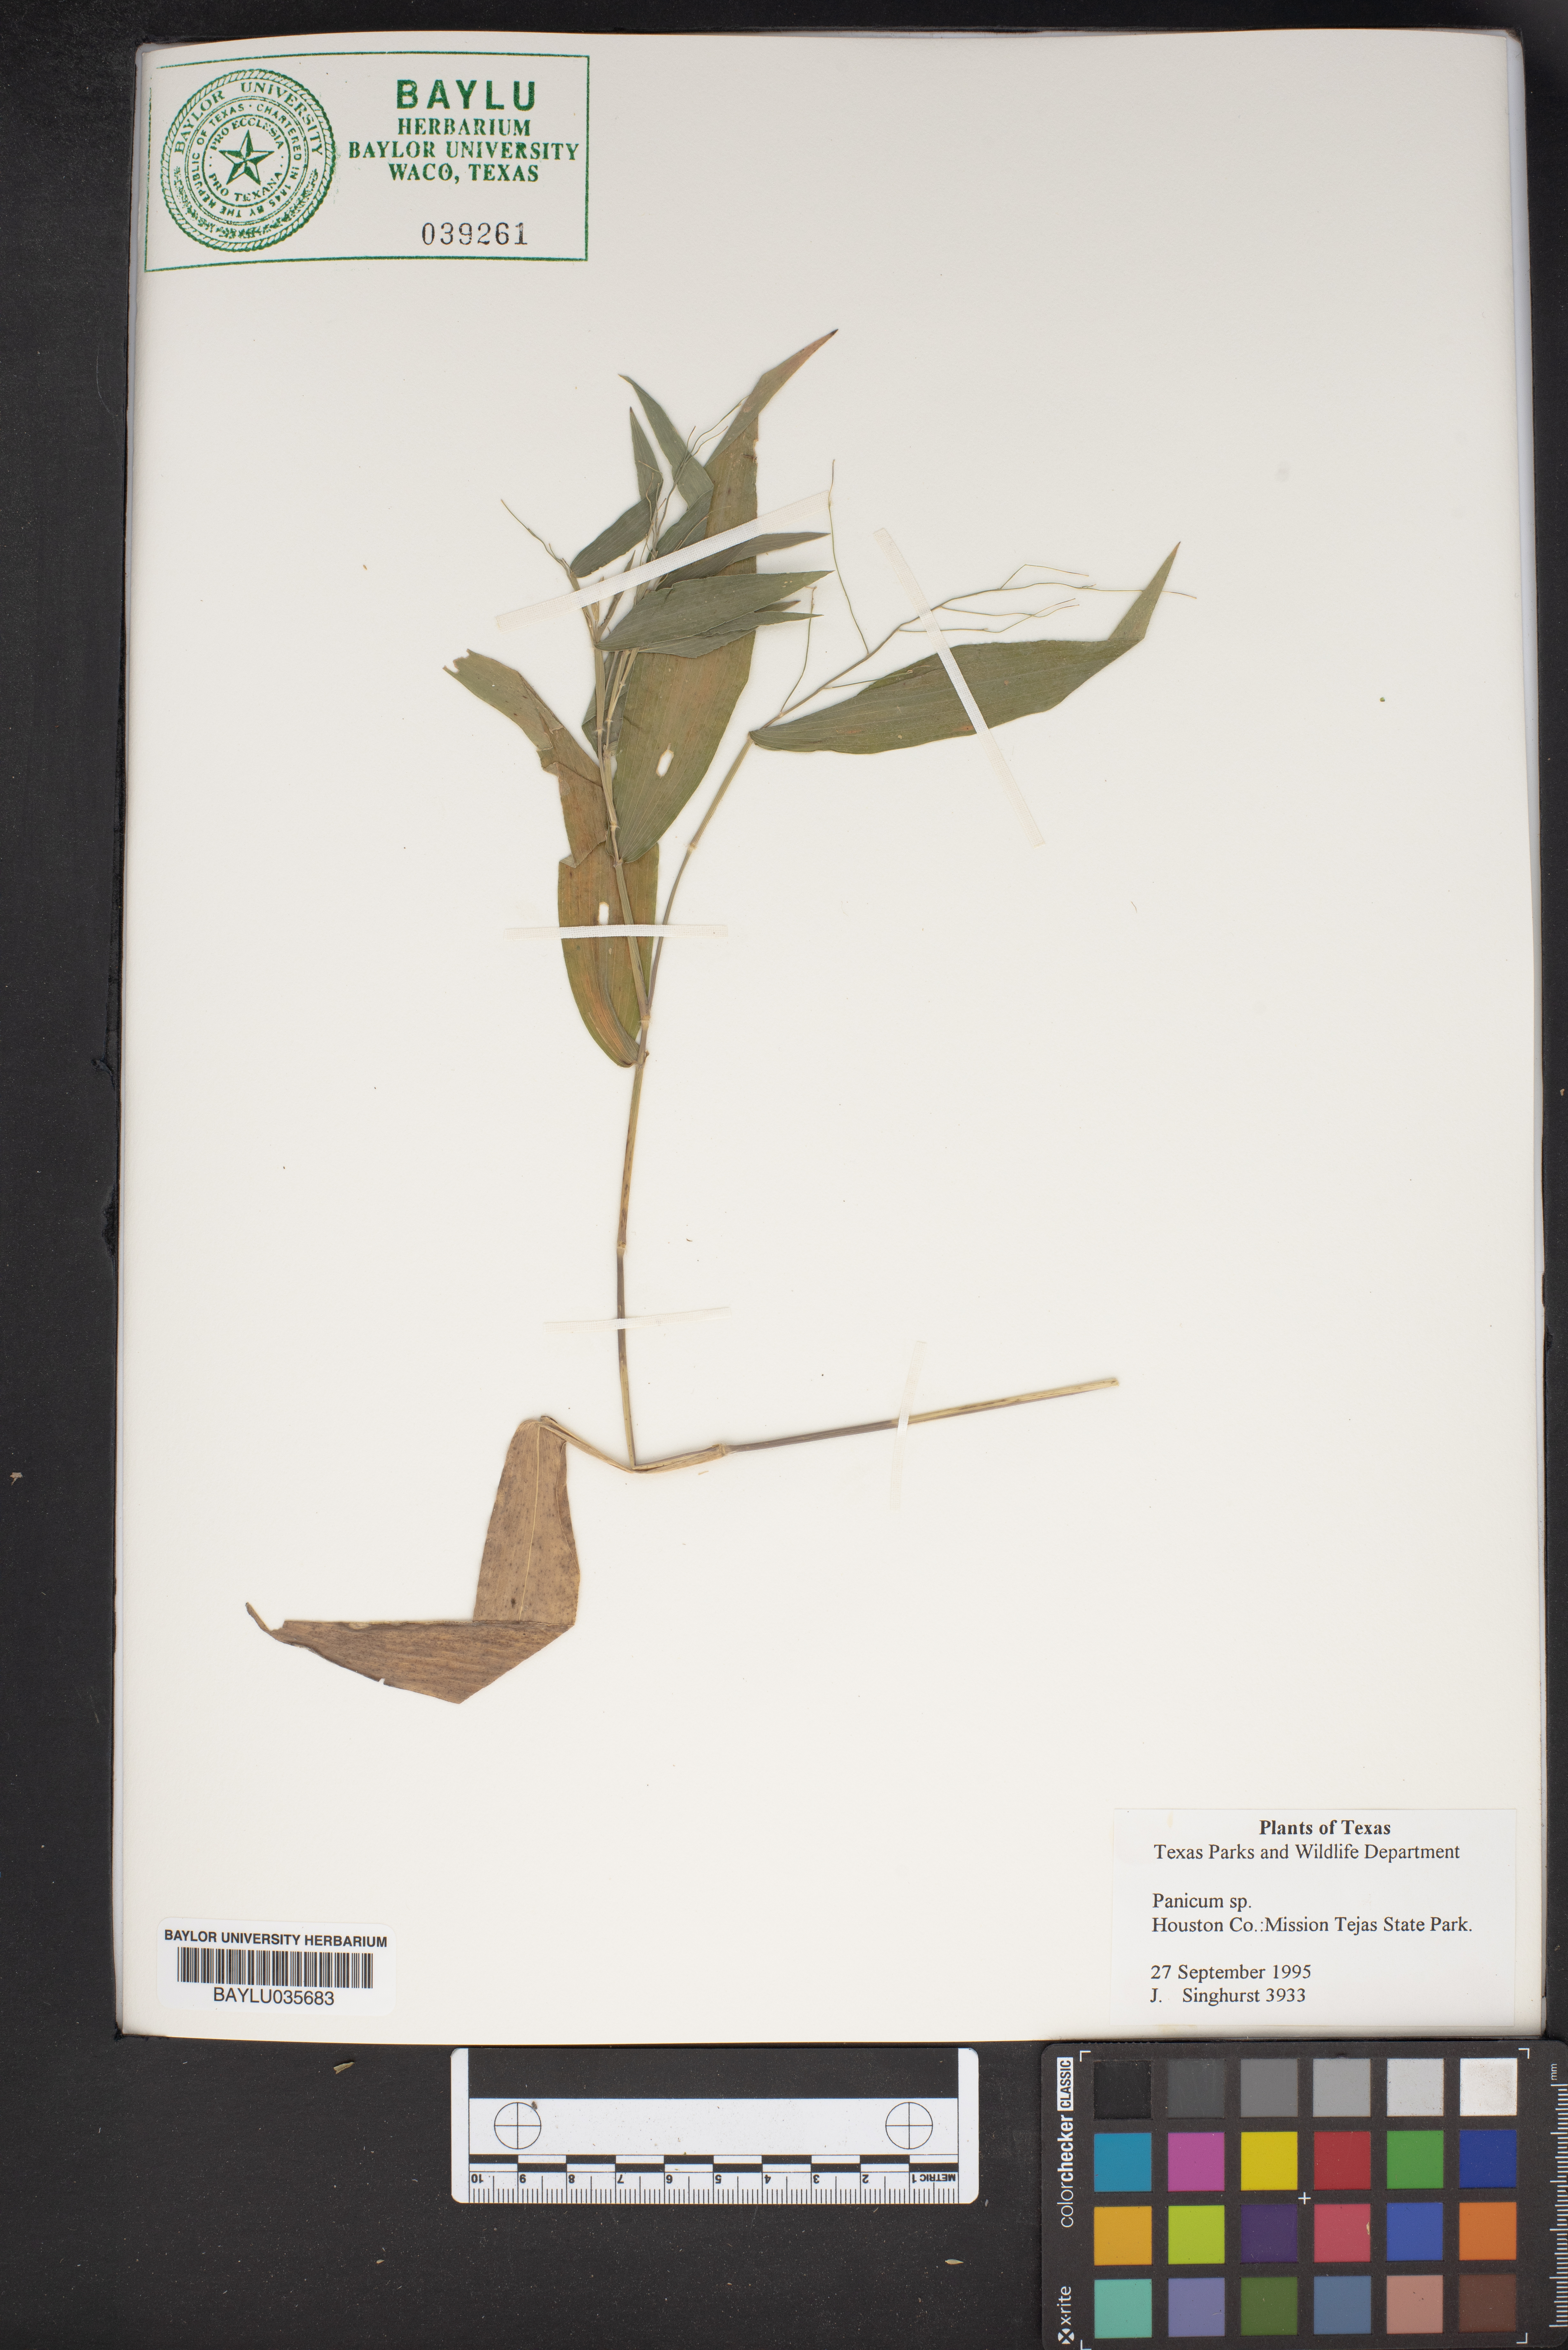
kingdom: Plantae
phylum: Tracheophyta
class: Liliopsida
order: Poales
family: Poaceae
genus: Panicum
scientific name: Panicum
